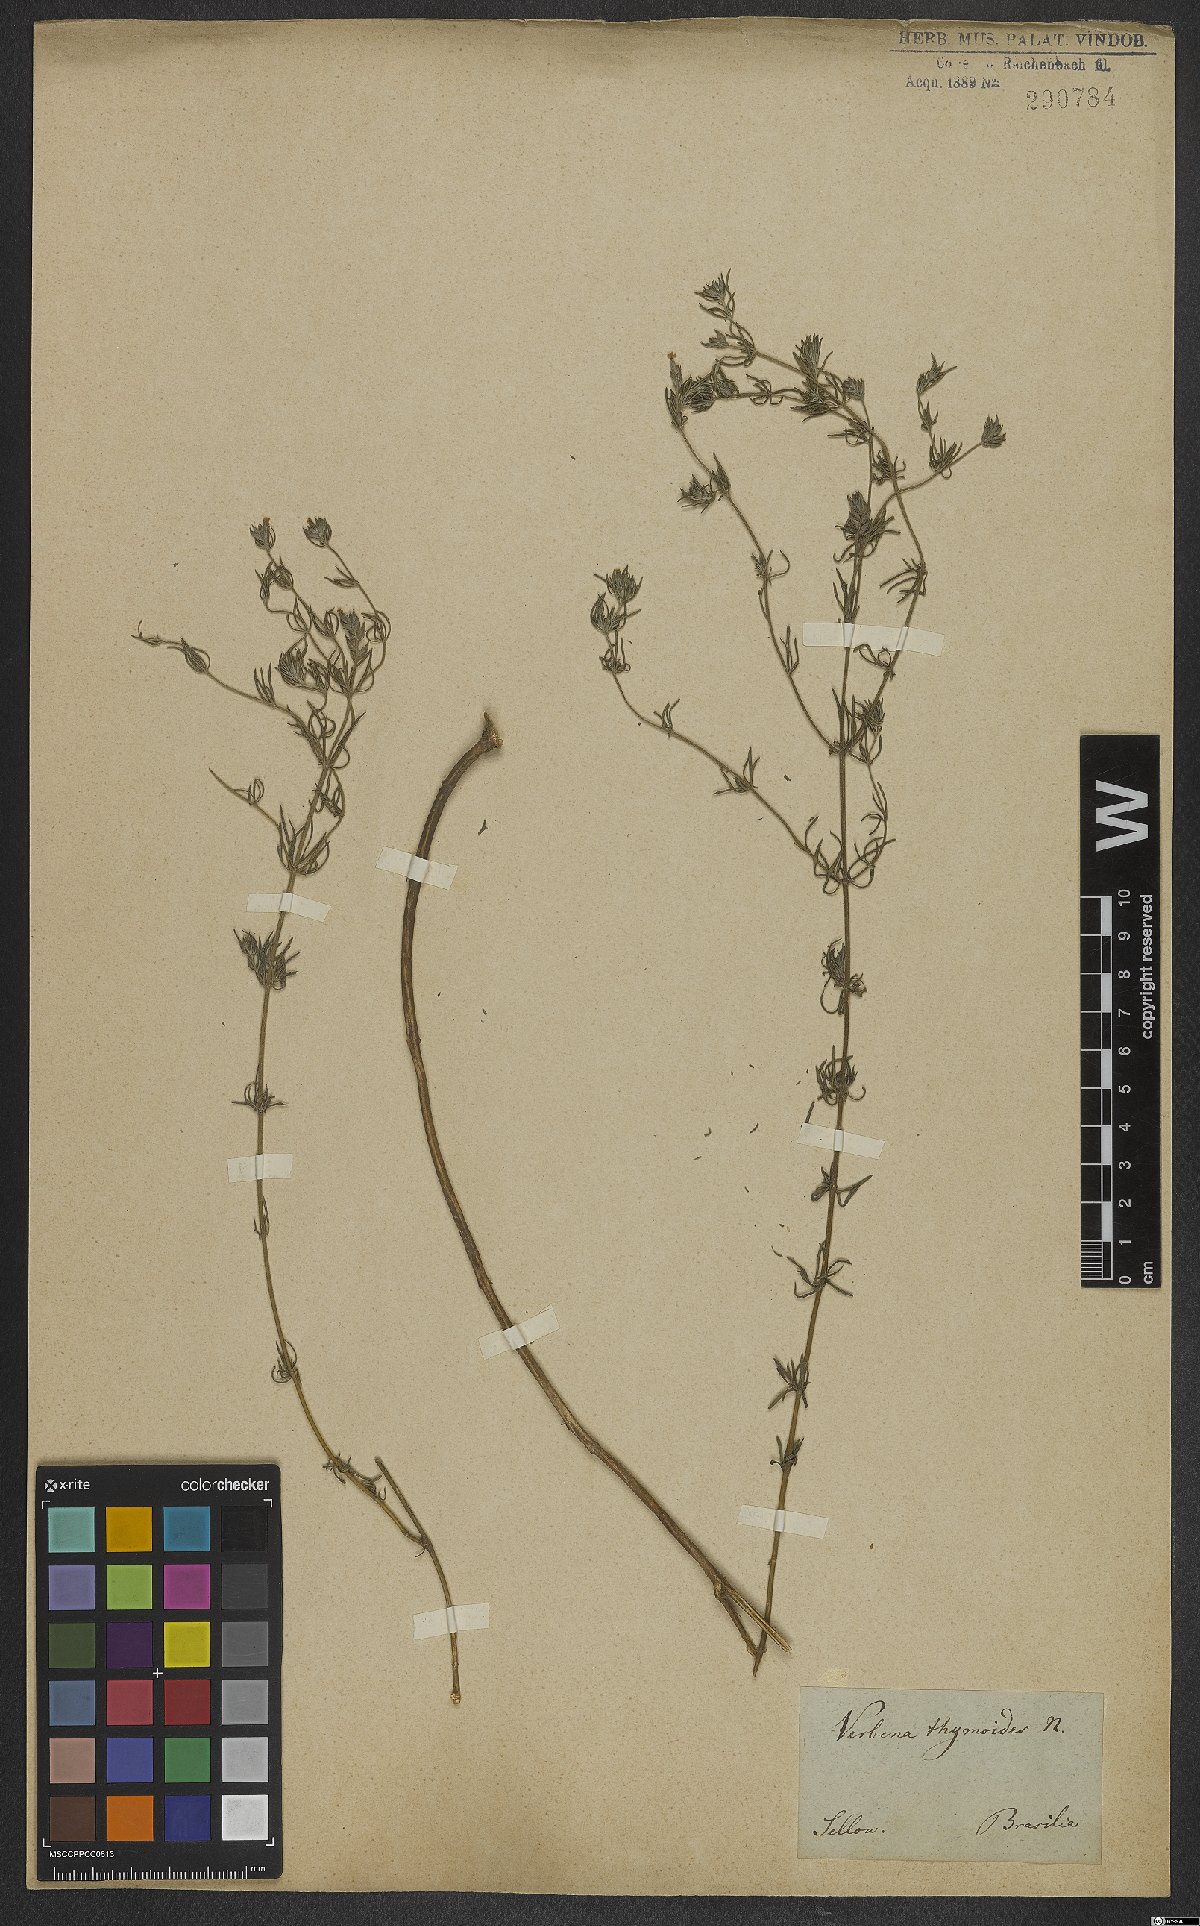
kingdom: Plantae
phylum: Tracheophyta
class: Magnoliopsida
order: Lamiales
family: Verbenaceae
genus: Verbena
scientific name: Verbena thymoides
